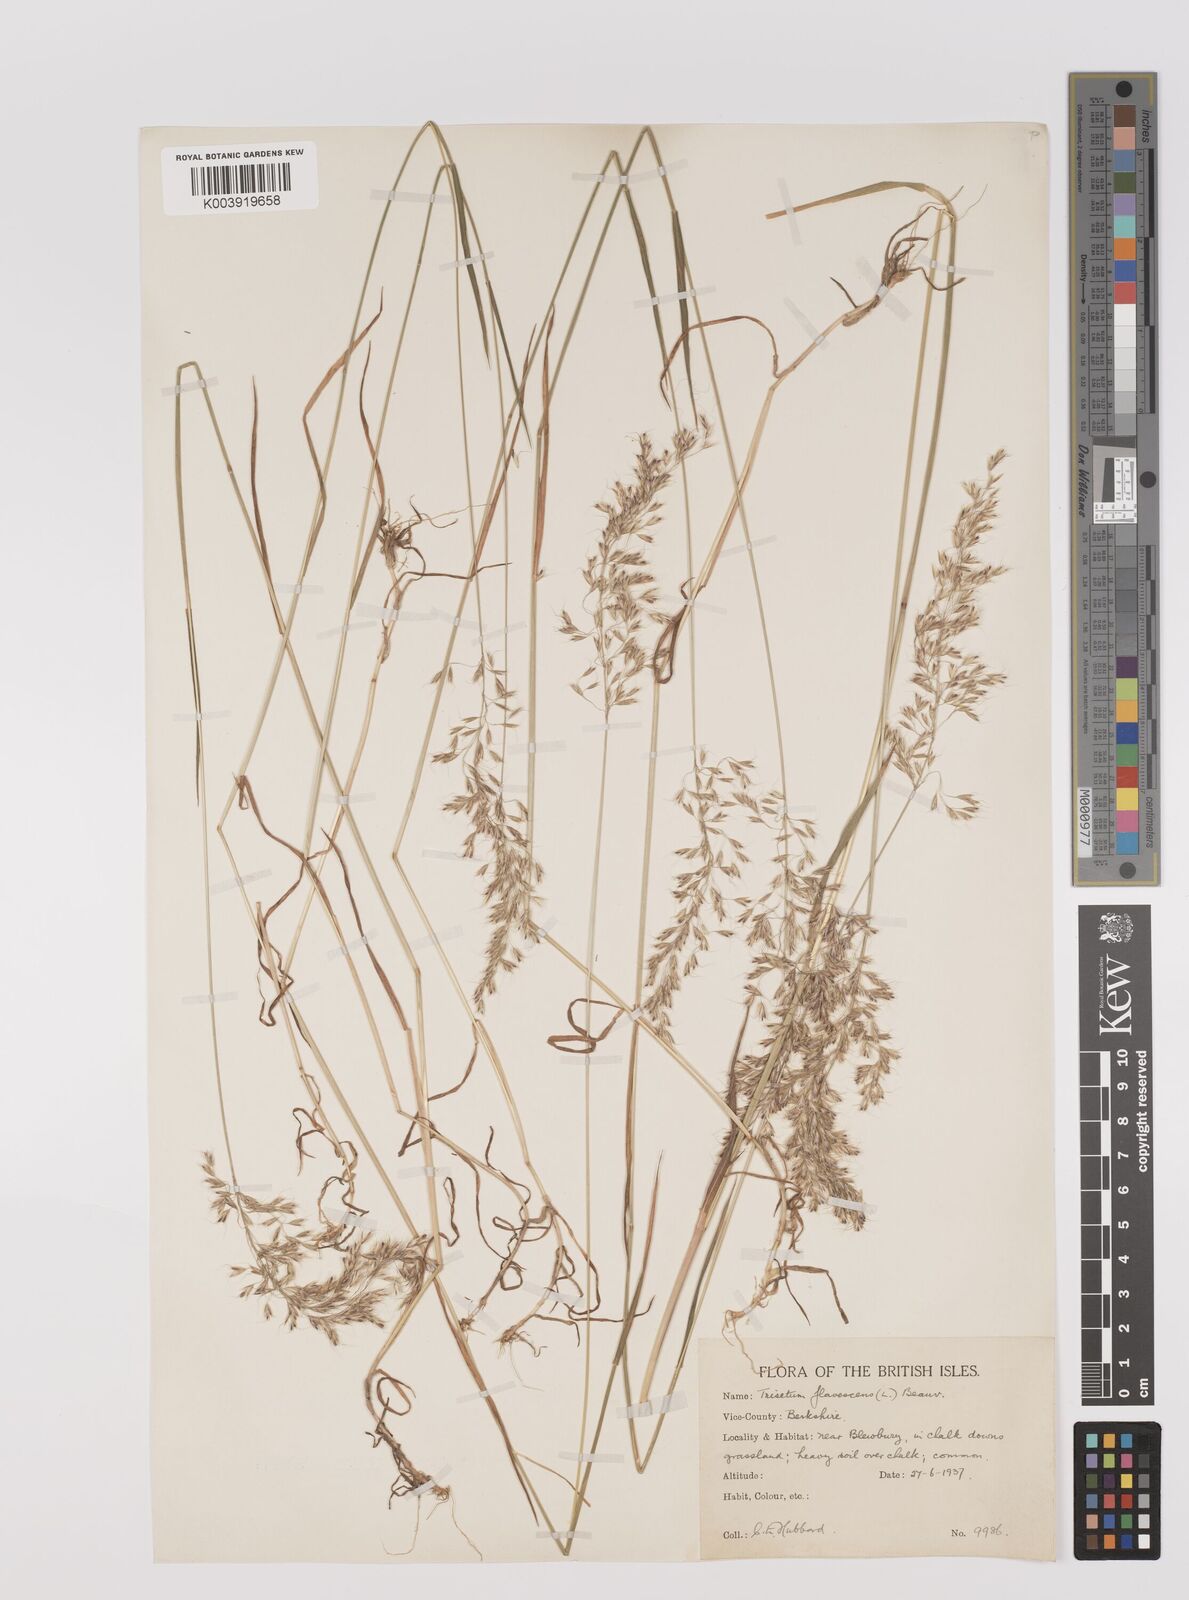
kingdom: Plantae
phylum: Tracheophyta
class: Liliopsida
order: Poales
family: Poaceae
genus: Trisetum
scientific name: Trisetum flavescens
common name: Yellow oat-grass
